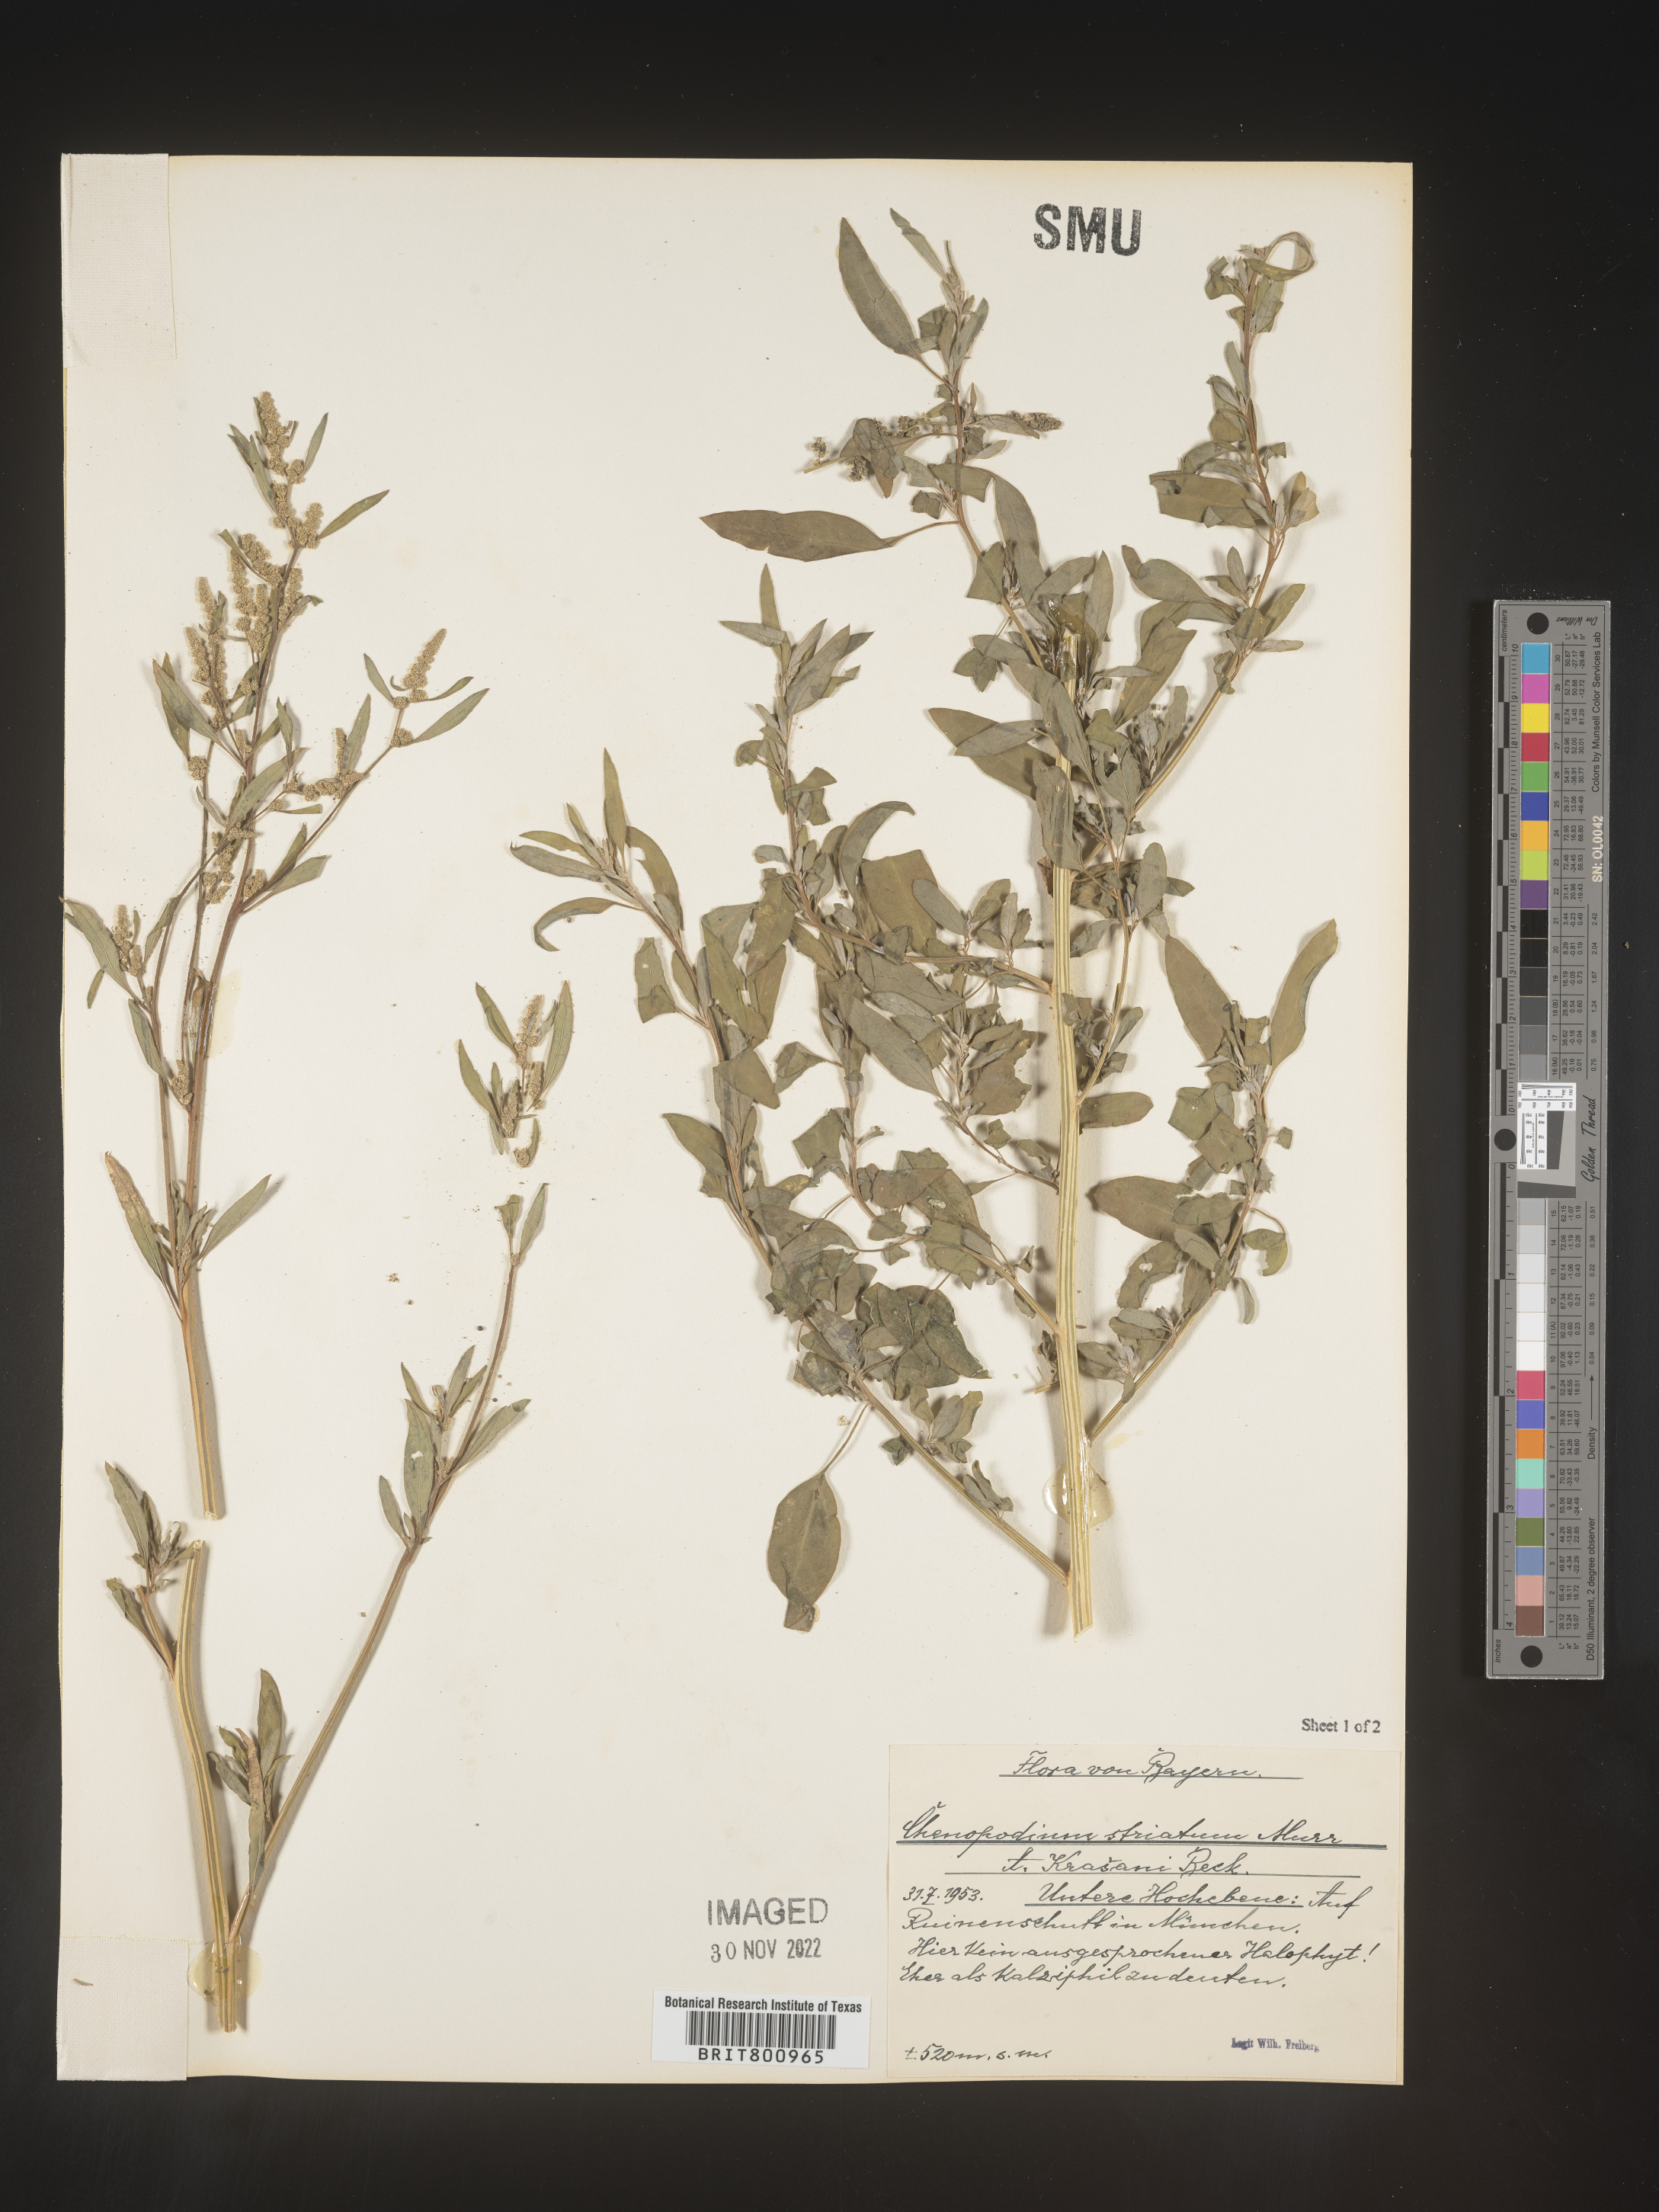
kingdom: Plantae
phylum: Tracheophyta
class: Magnoliopsida
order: Caryophyllales
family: Amaranthaceae
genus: Chenopodium
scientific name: Chenopodium
